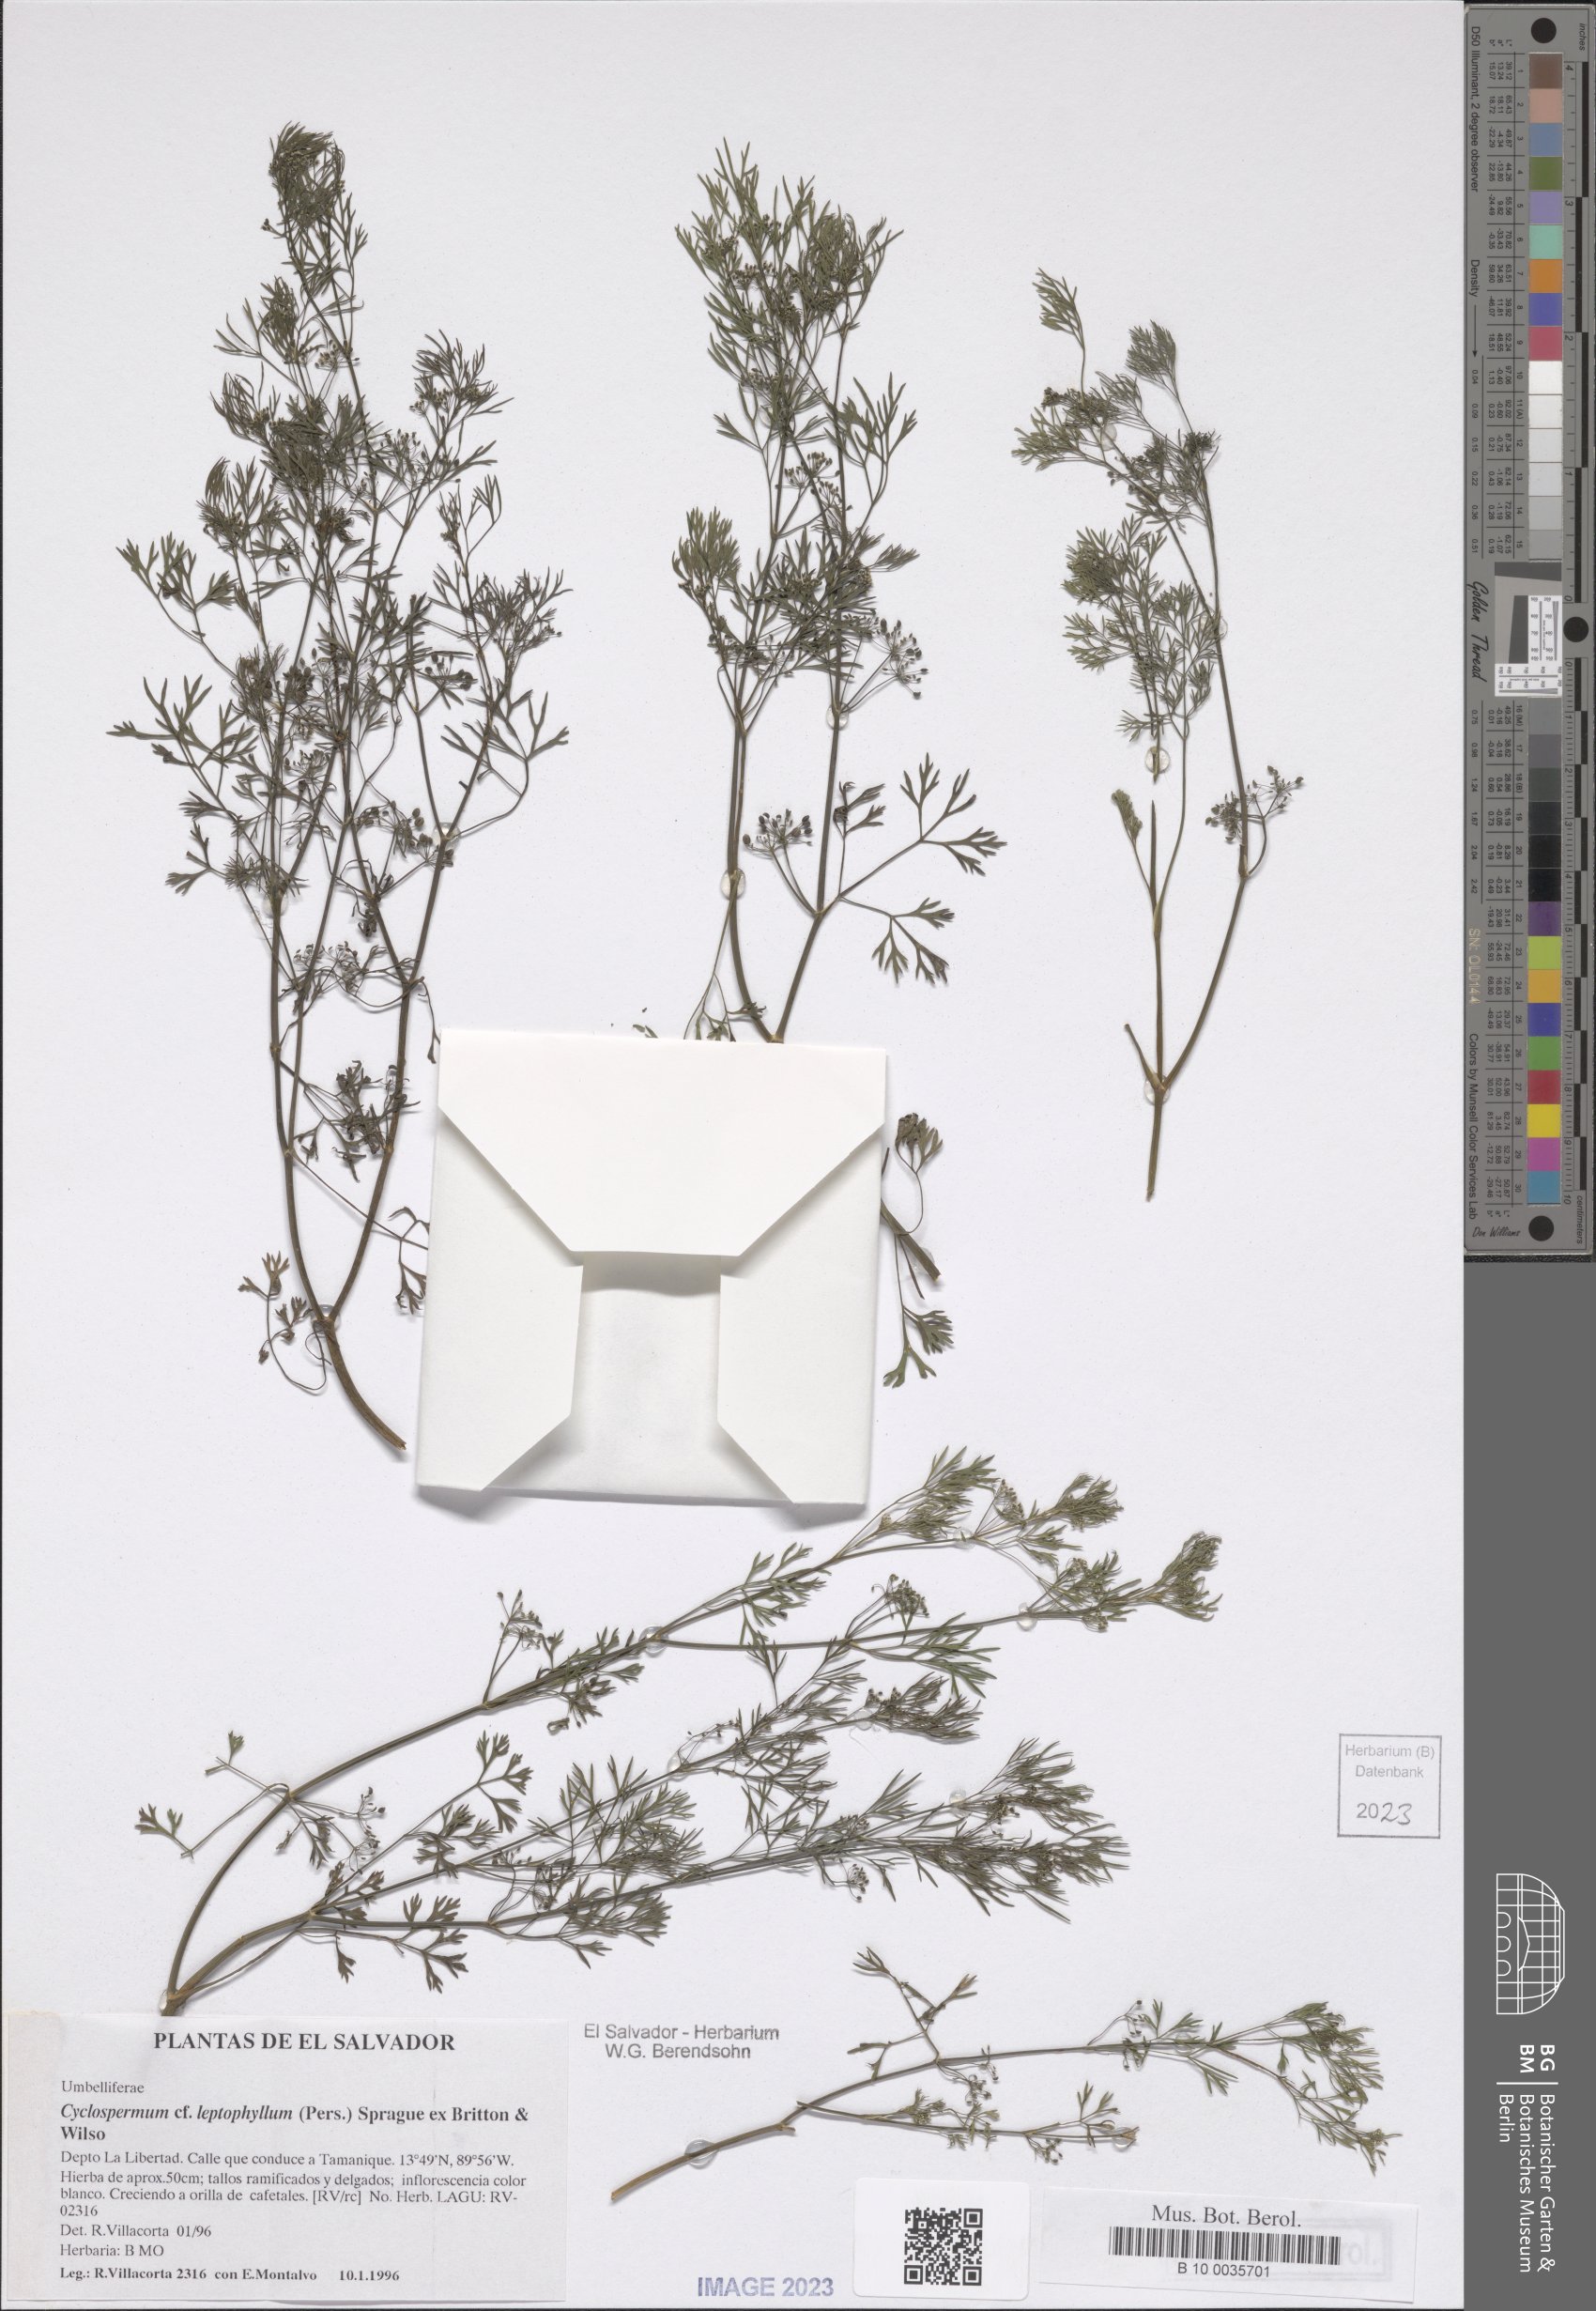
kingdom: Plantae
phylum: Tracheophyta
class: Magnoliopsida
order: Apiales
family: Apiaceae
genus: Cyclospermum
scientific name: Cyclospermum leptophyllum
